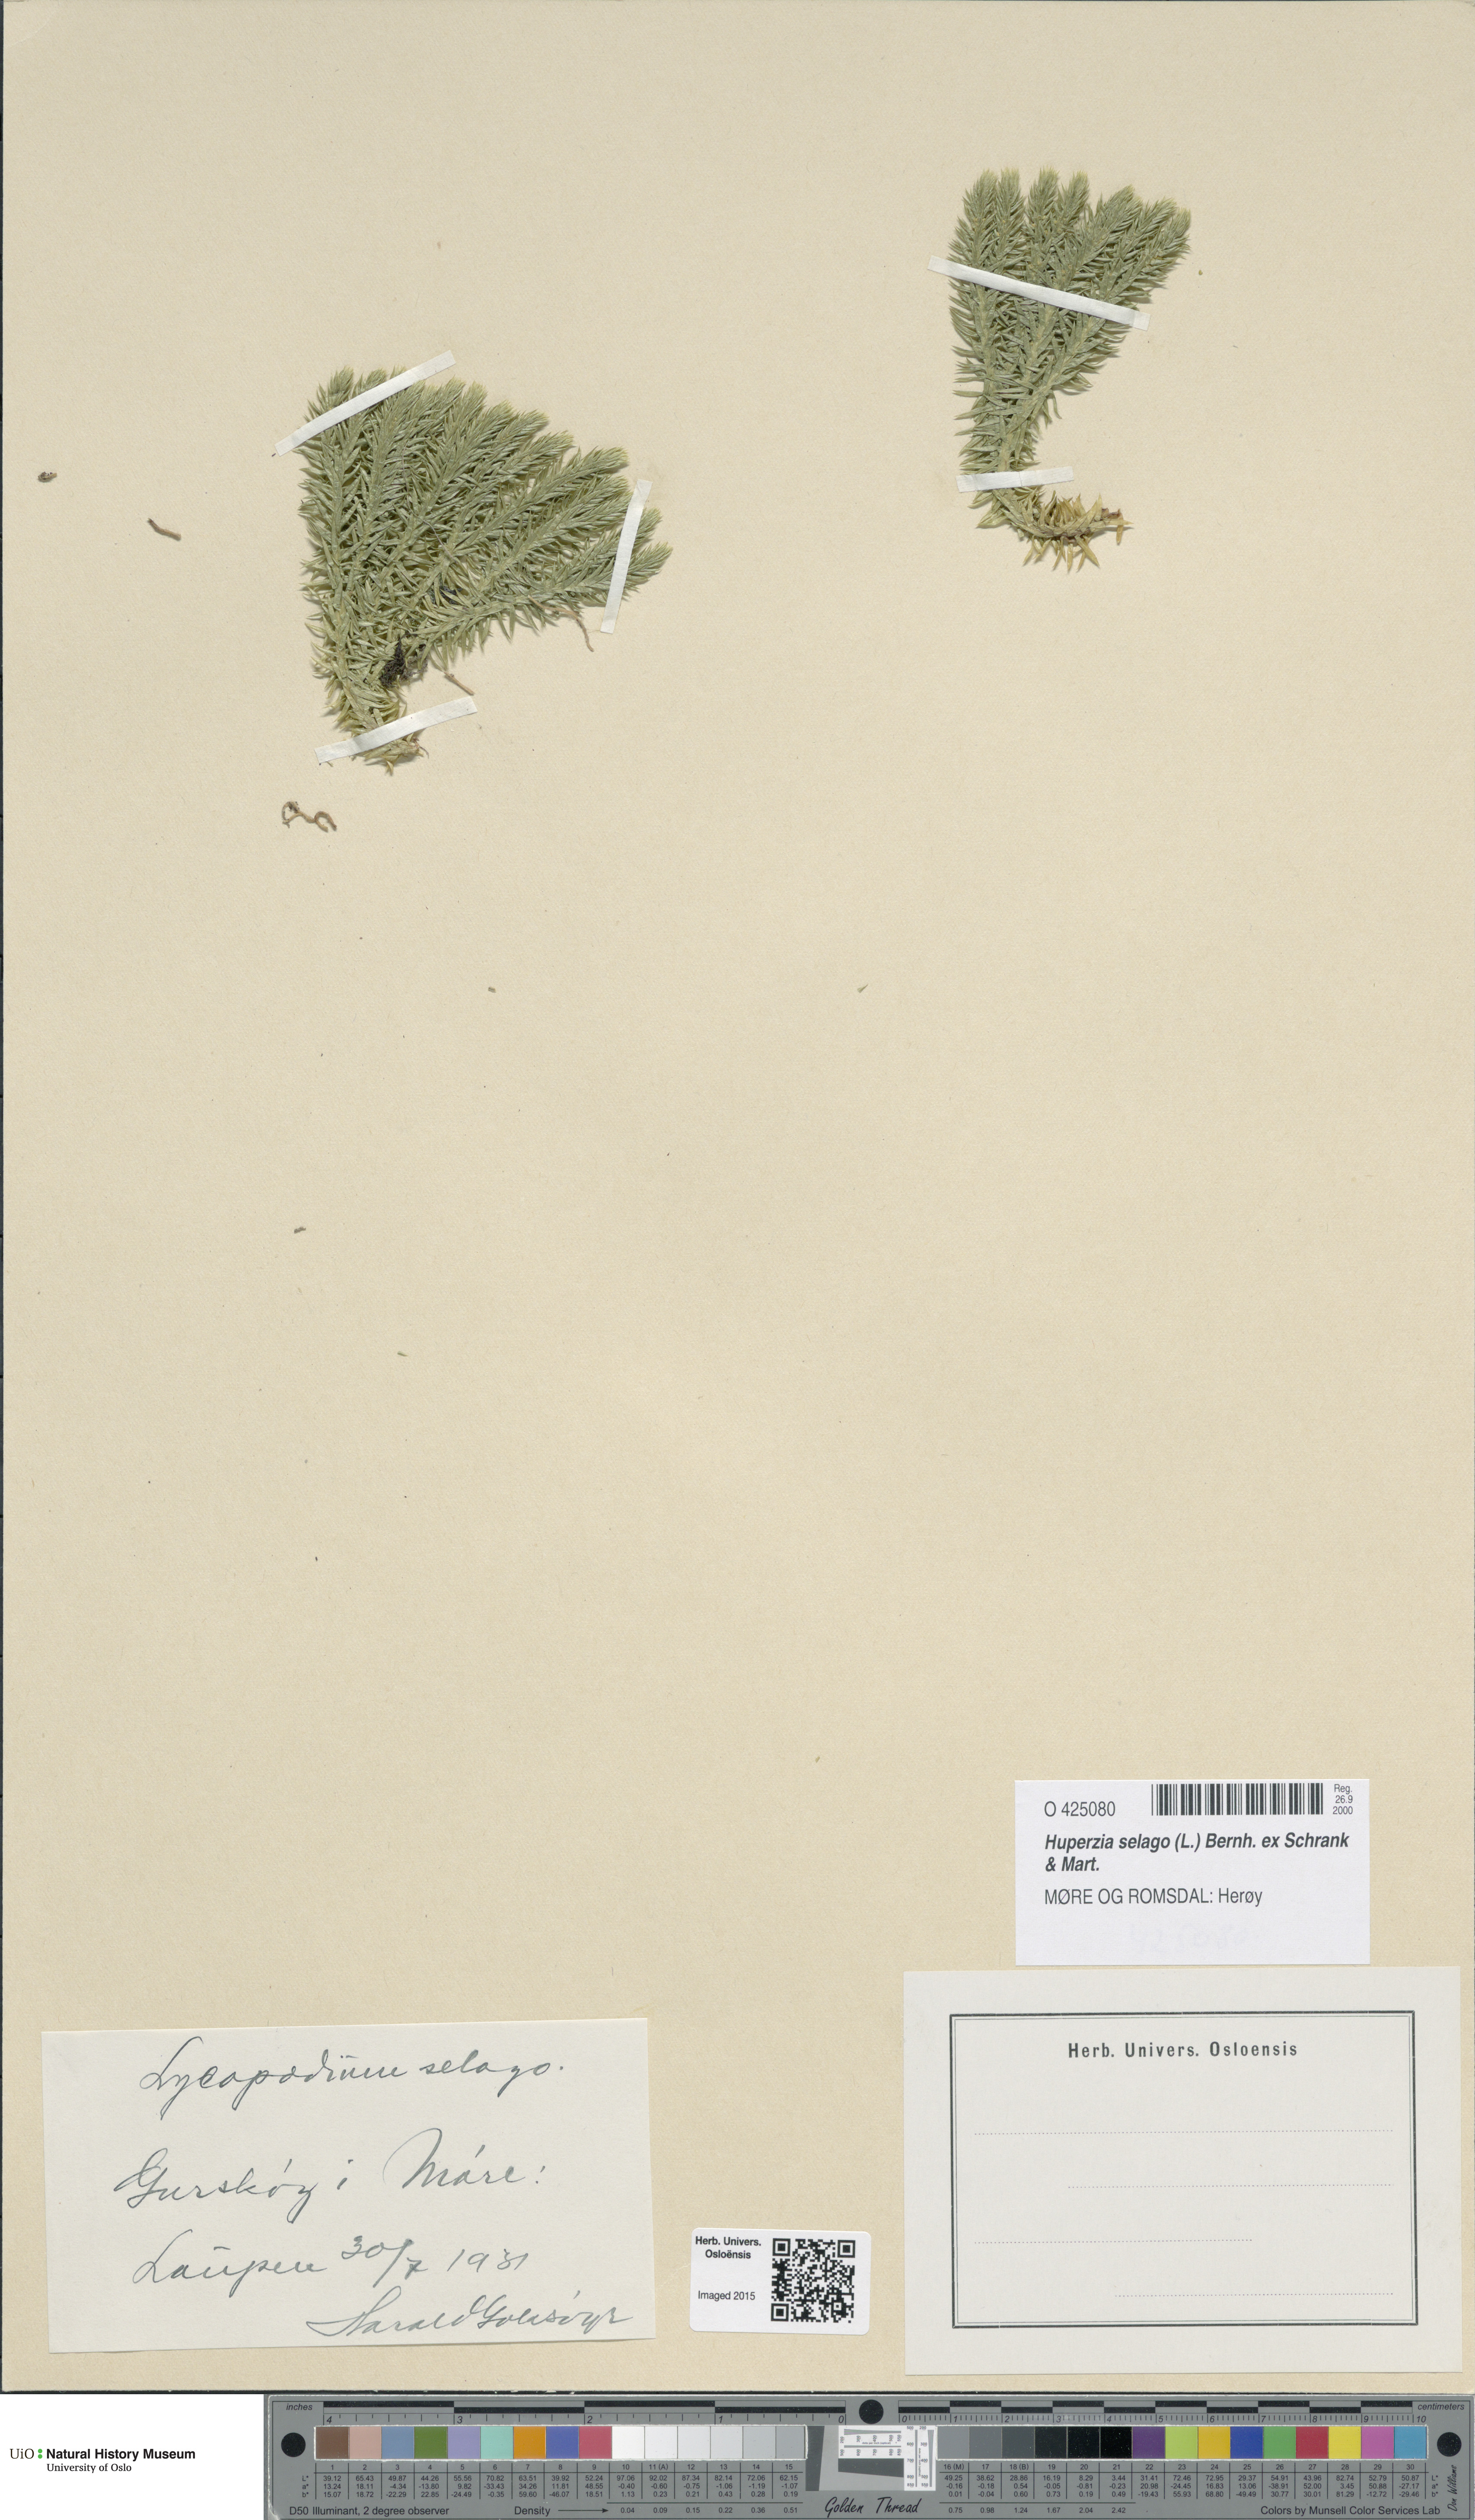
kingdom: Plantae
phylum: Tracheophyta
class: Lycopodiopsida
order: Lycopodiales
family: Lycopodiaceae
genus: Huperzia
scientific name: Huperzia selago
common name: Northern firmoss
